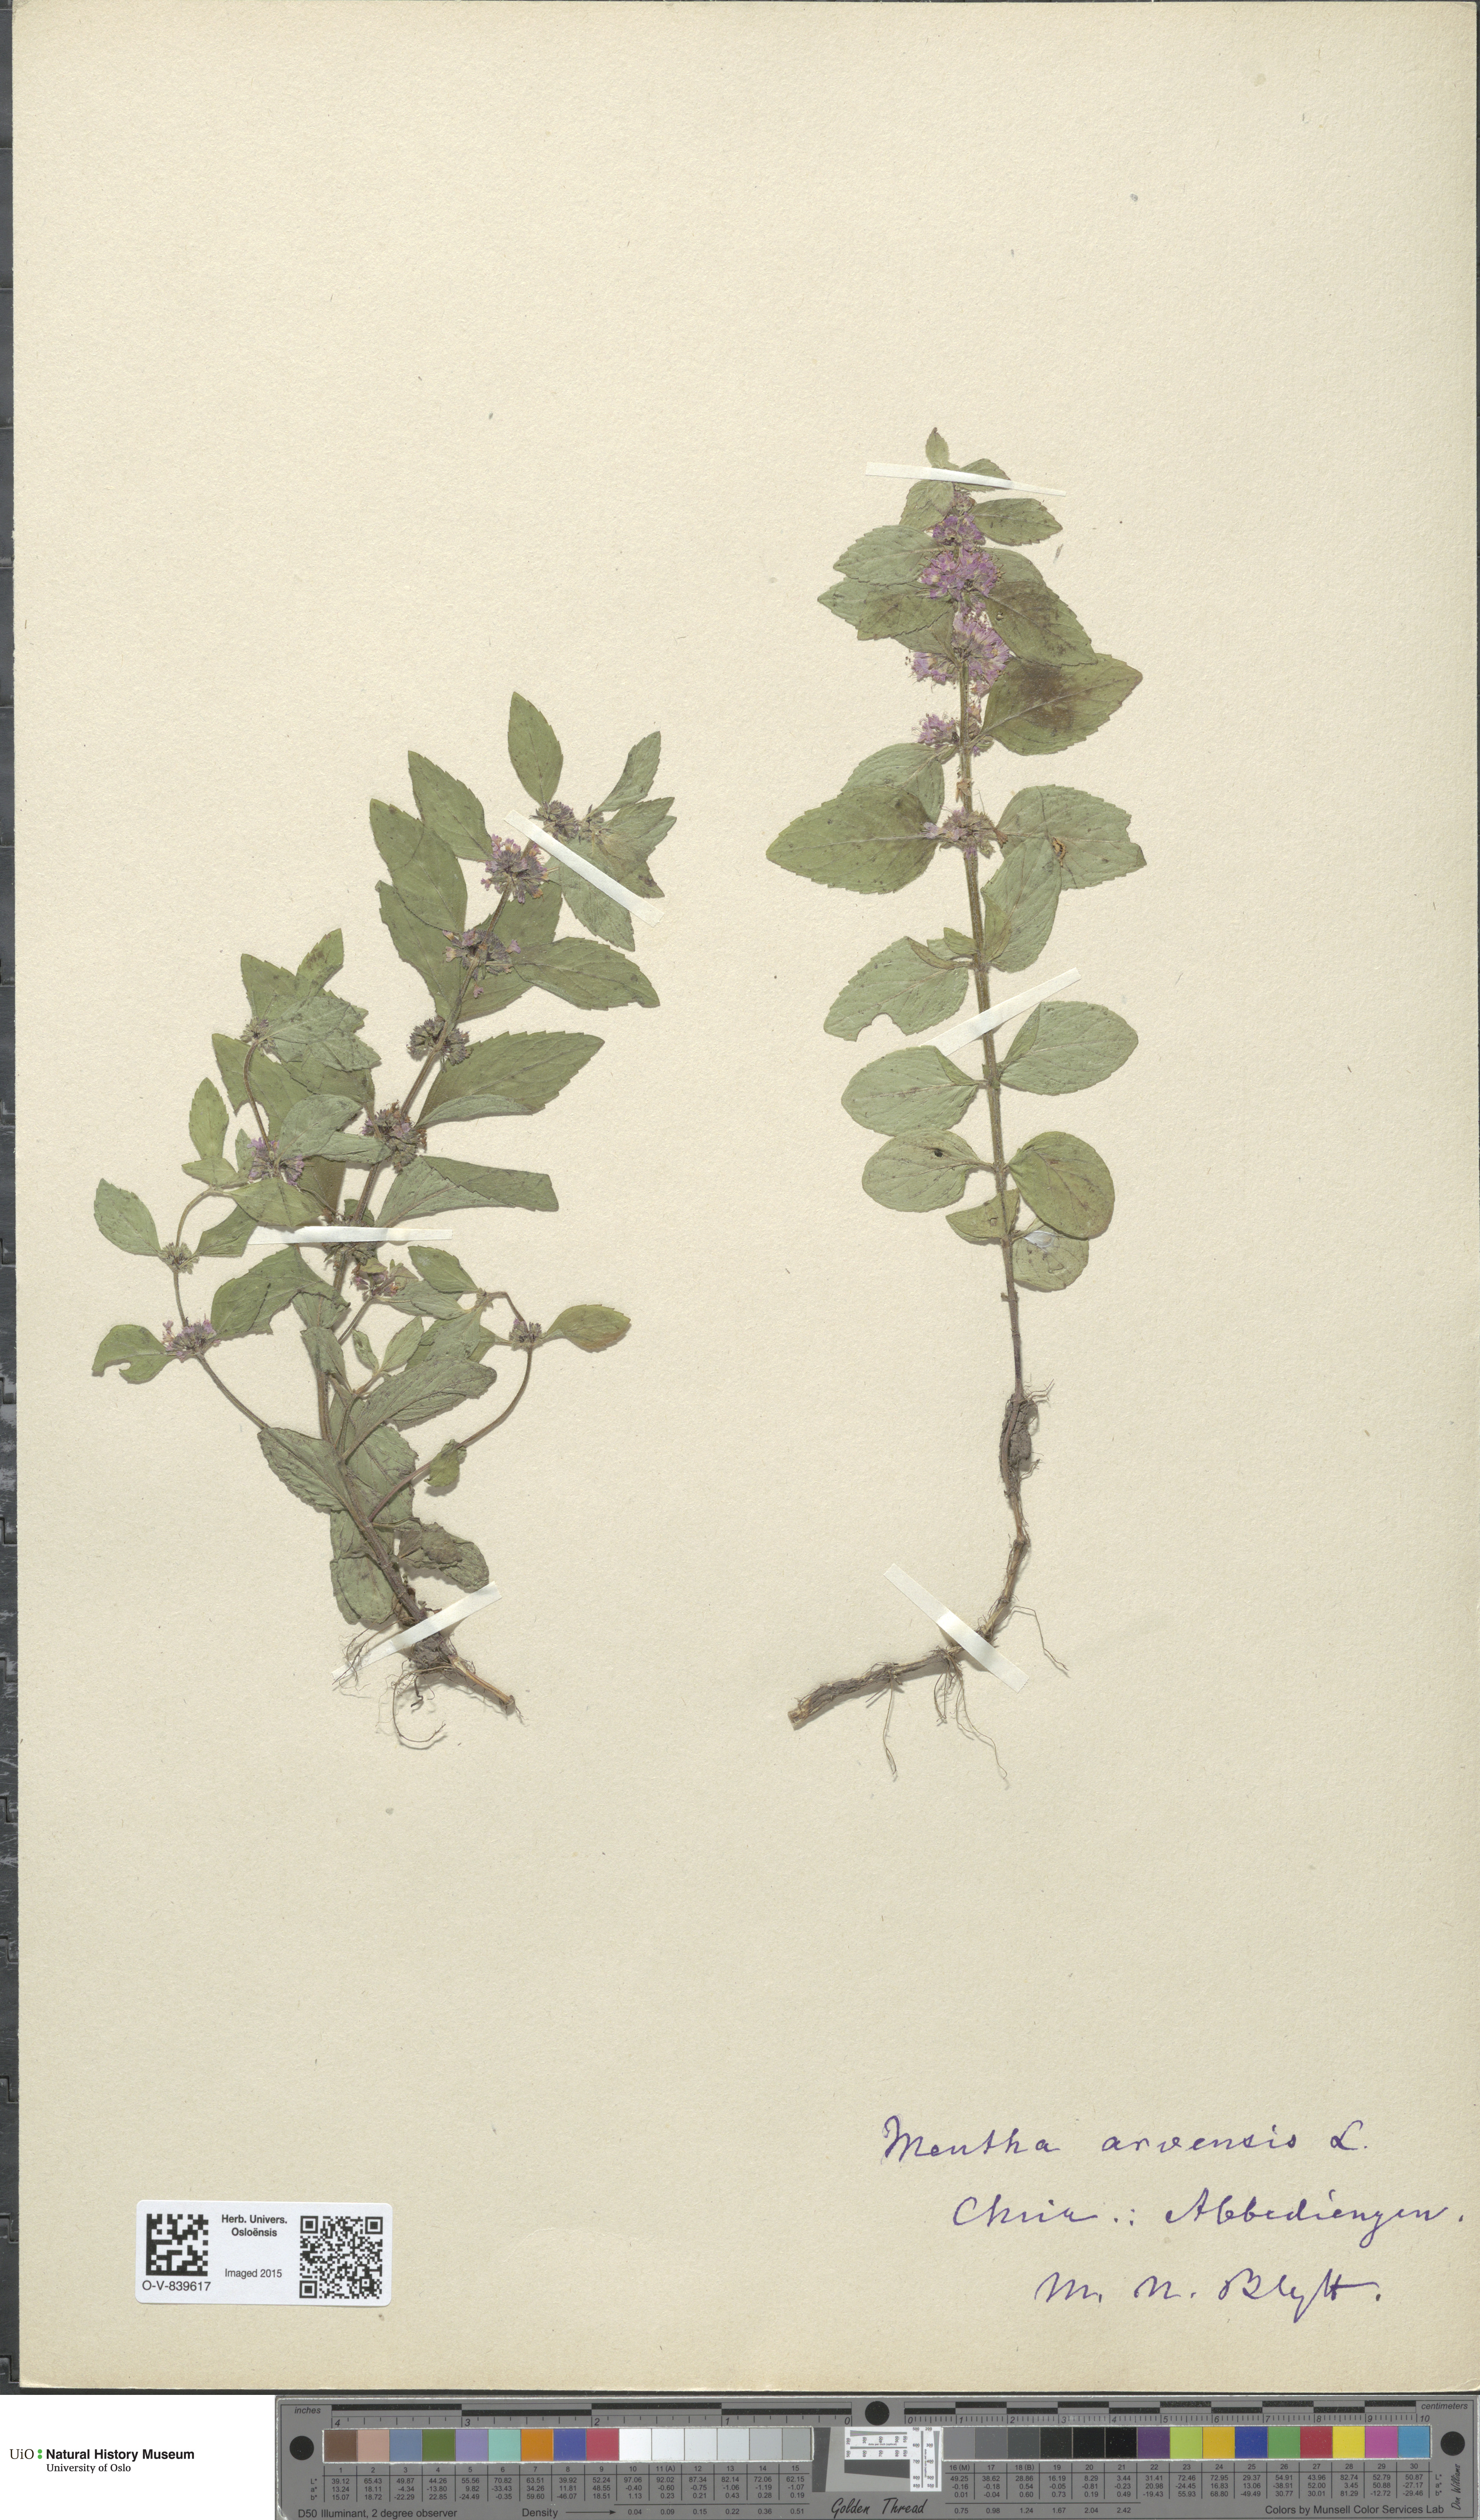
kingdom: Plantae
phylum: Tracheophyta
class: Magnoliopsida
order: Lamiales
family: Lamiaceae
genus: Mentha
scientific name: Mentha arvensis
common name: Corn mint
